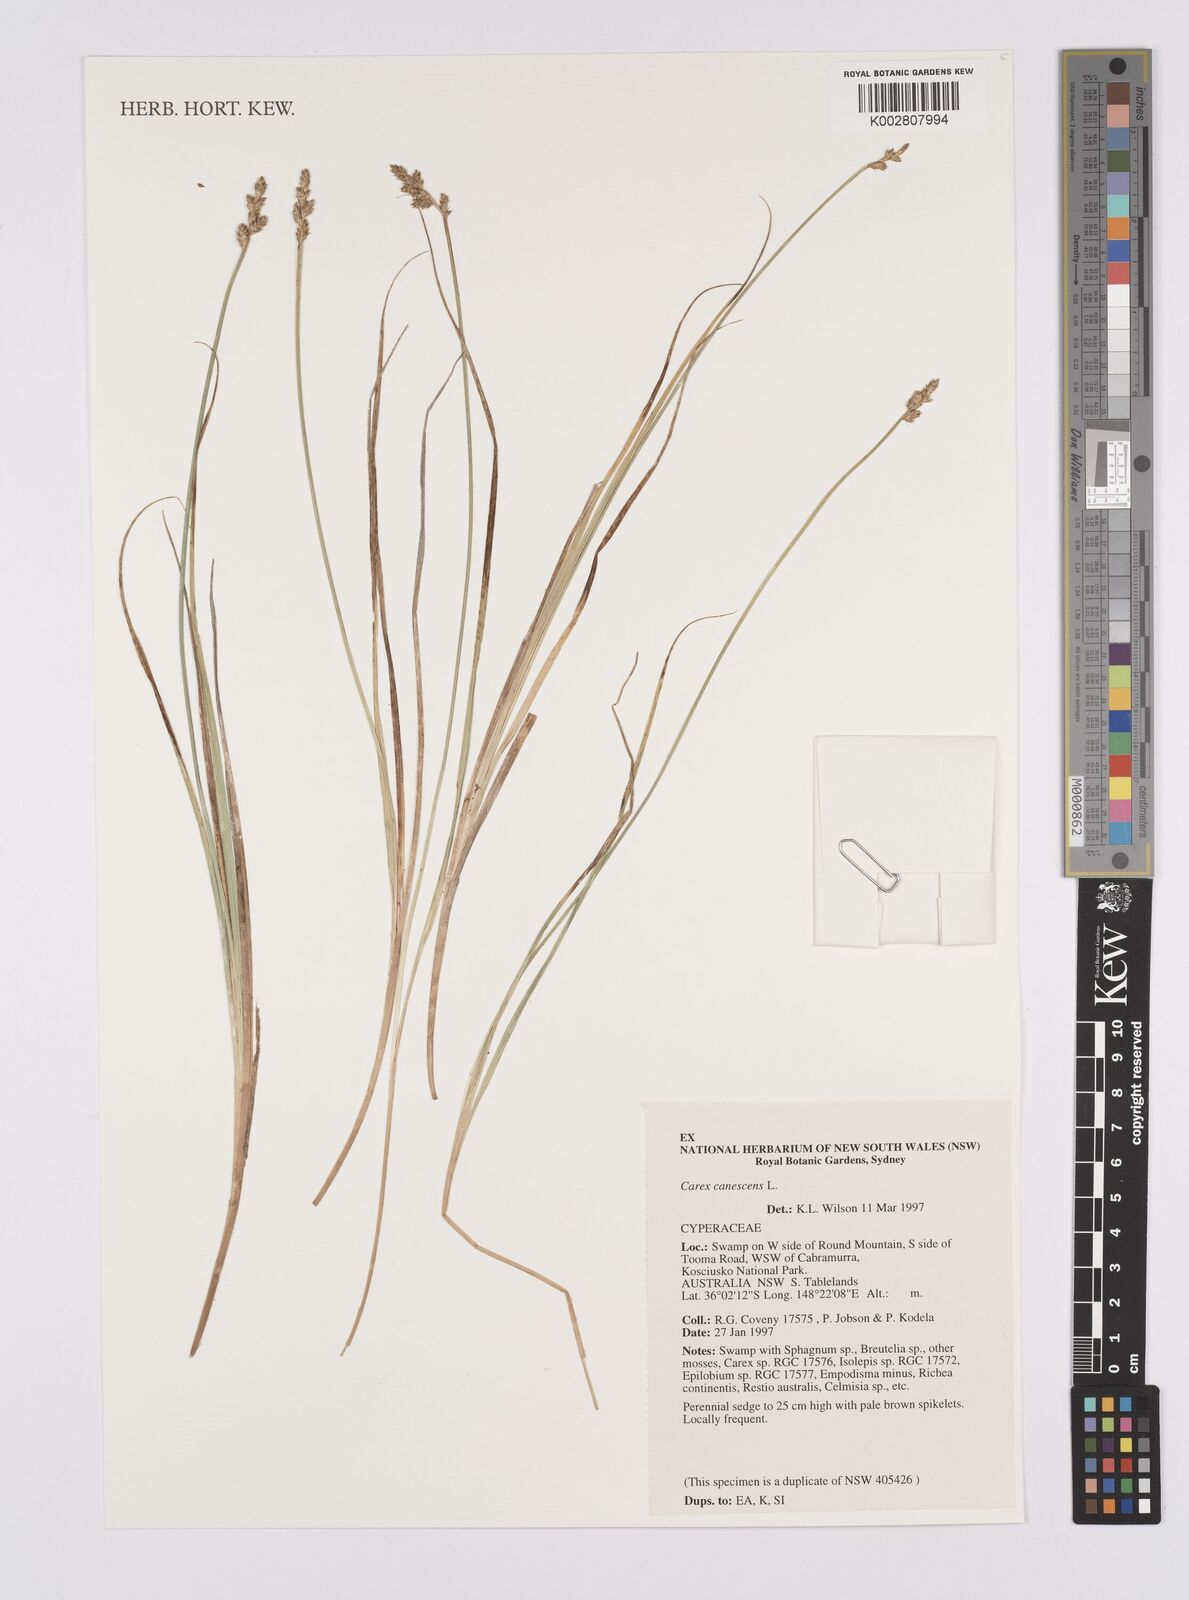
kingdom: Plantae
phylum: Tracheophyta
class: Liliopsida
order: Poales
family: Cyperaceae
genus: Carex
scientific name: Carex canescens
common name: White sedge
